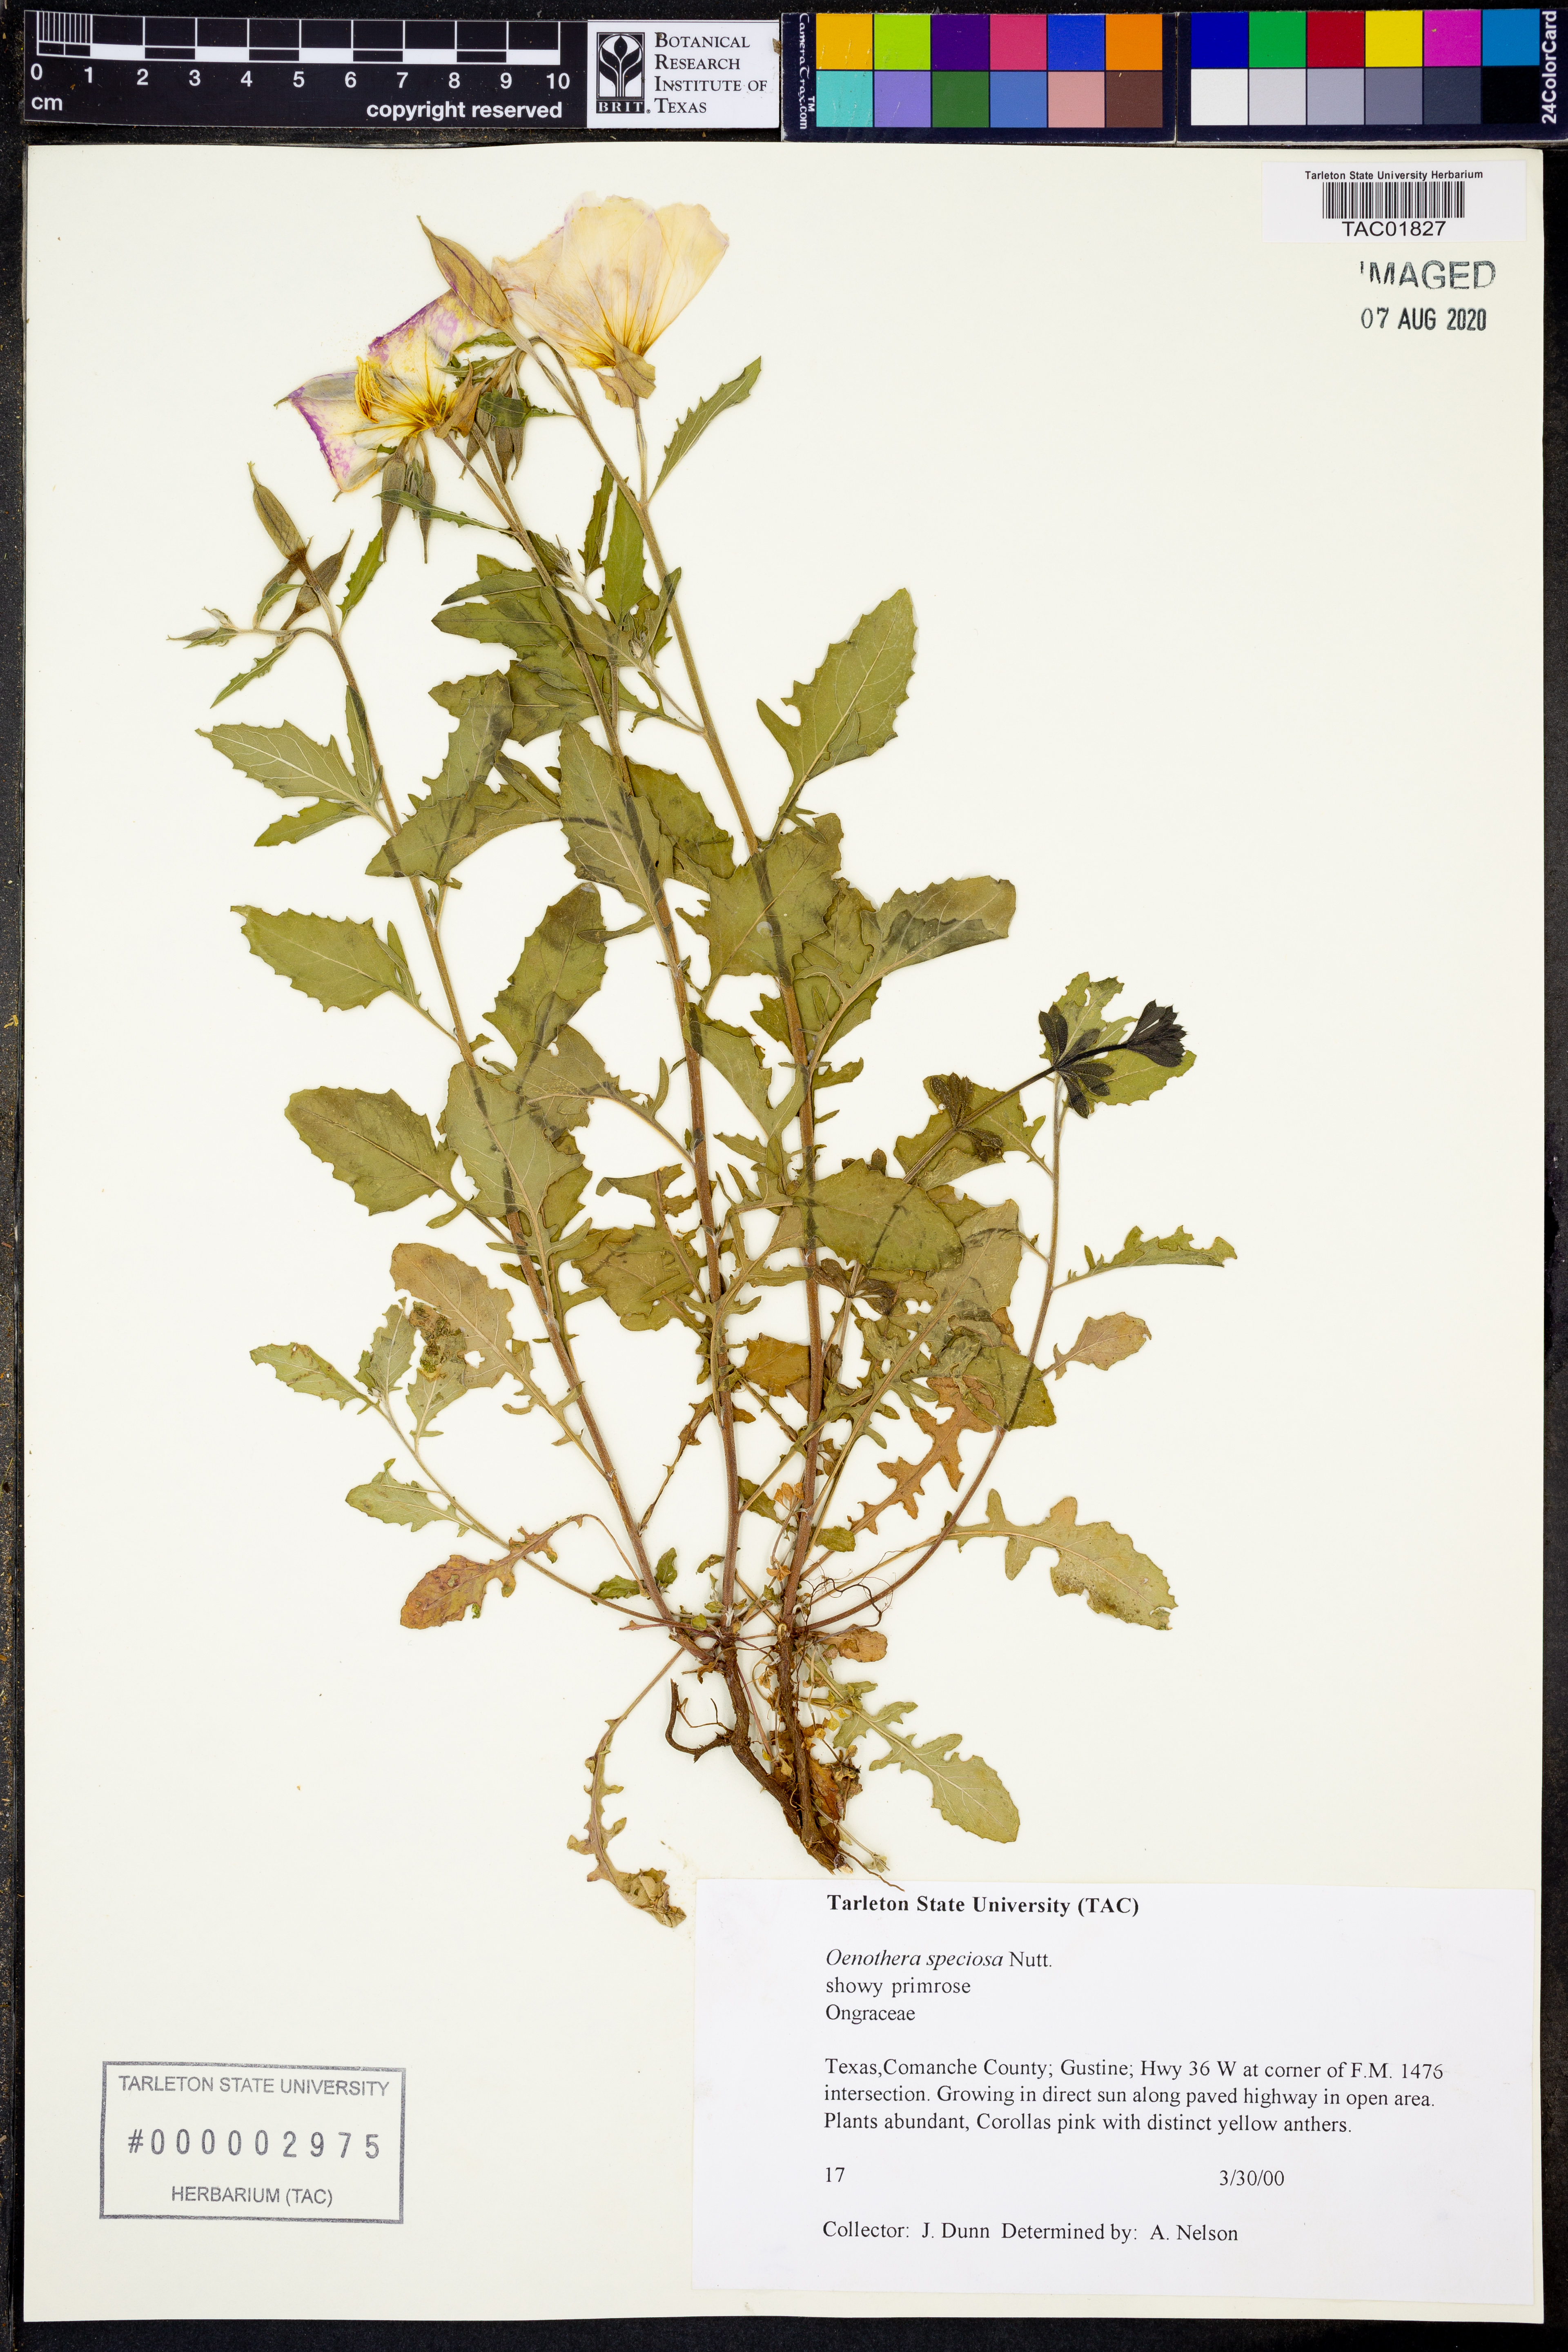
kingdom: Plantae
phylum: Tracheophyta
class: Magnoliopsida
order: Myrtales
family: Onagraceae
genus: Oenothera
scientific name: Oenothera speciosa
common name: White evening-primrose
